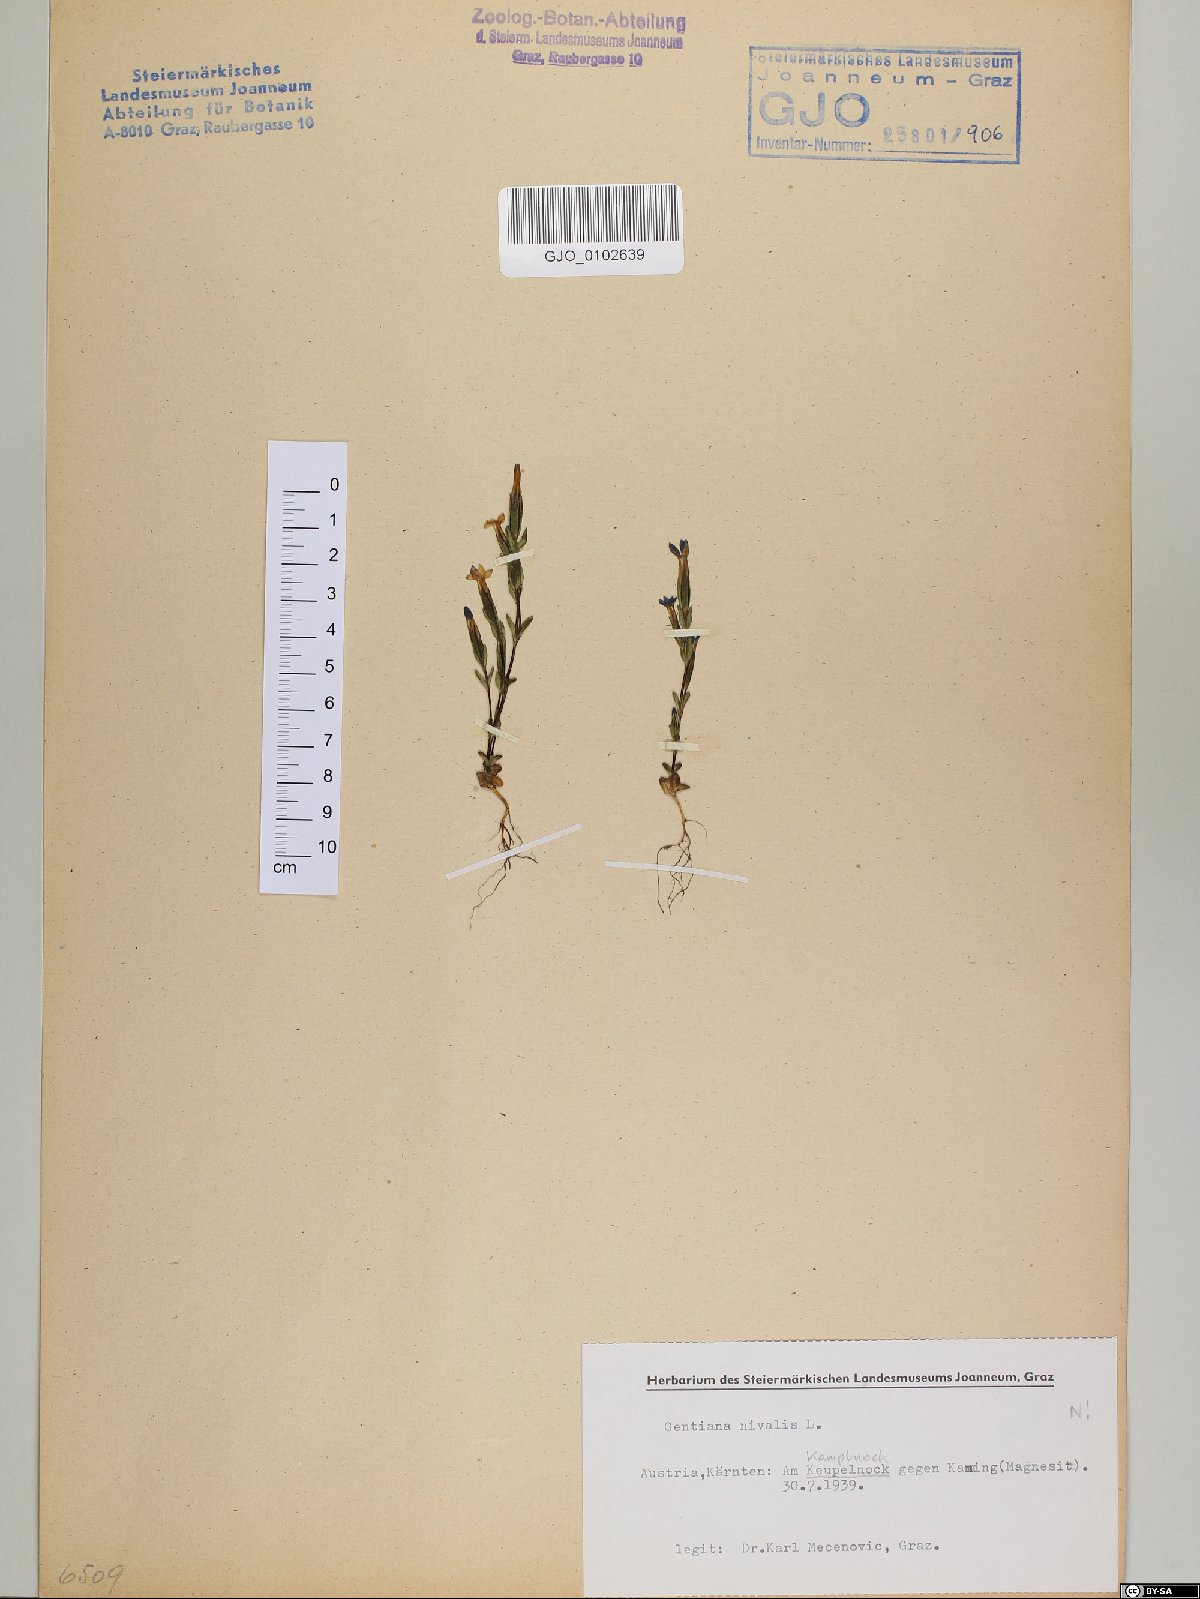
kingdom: Plantae
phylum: Tracheophyta
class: Magnoliopsida
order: Gentianales
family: Gentianaceae
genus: Gentiana
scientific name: Gentiana nivalis
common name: Alpine gentian
